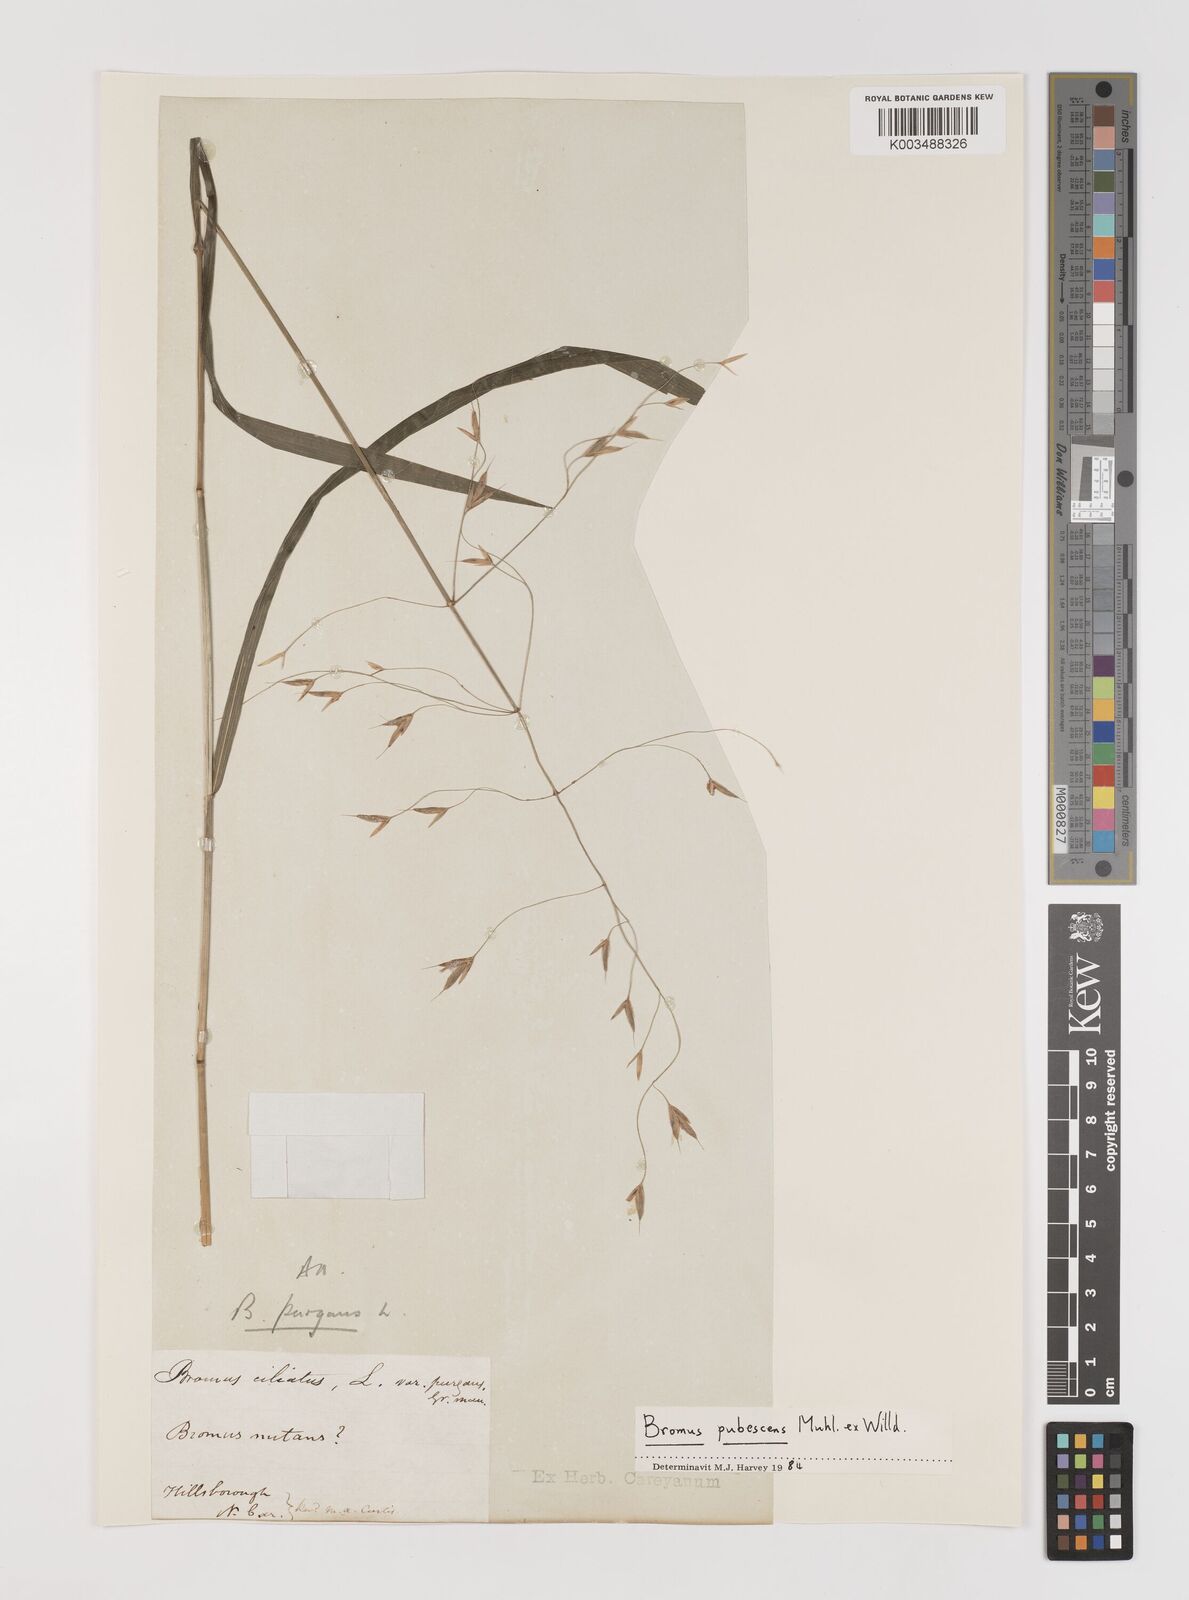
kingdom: Plantae
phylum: Tracheophyta
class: Liliopsida
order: Poales
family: Poaceae
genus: Bromus
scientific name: Bromus pubescens
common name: Hairy wood brome grass
